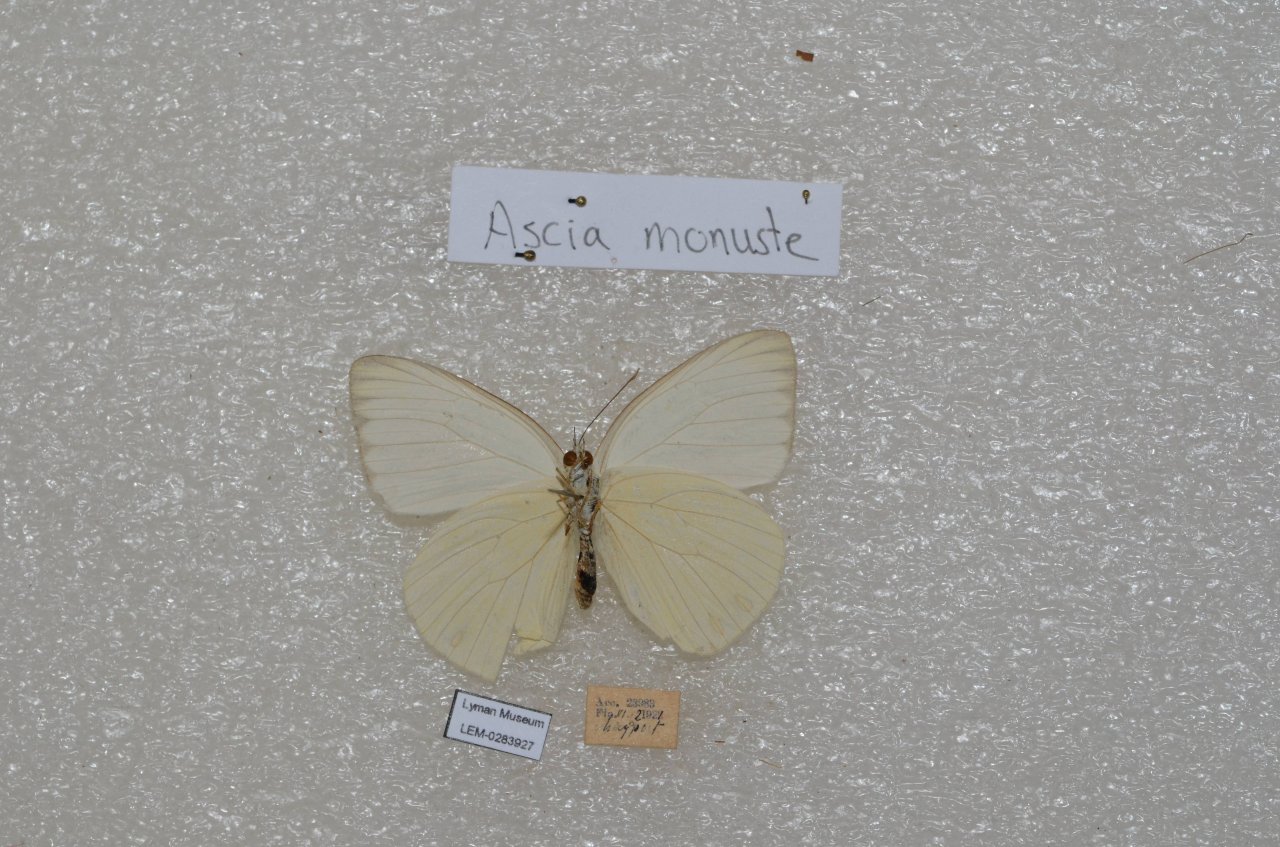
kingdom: Animalia
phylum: Arthropoda
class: Insecta
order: Lepidoptera
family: Pieridae
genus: Ascia
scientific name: Ascia monuste
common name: Great Southern White
